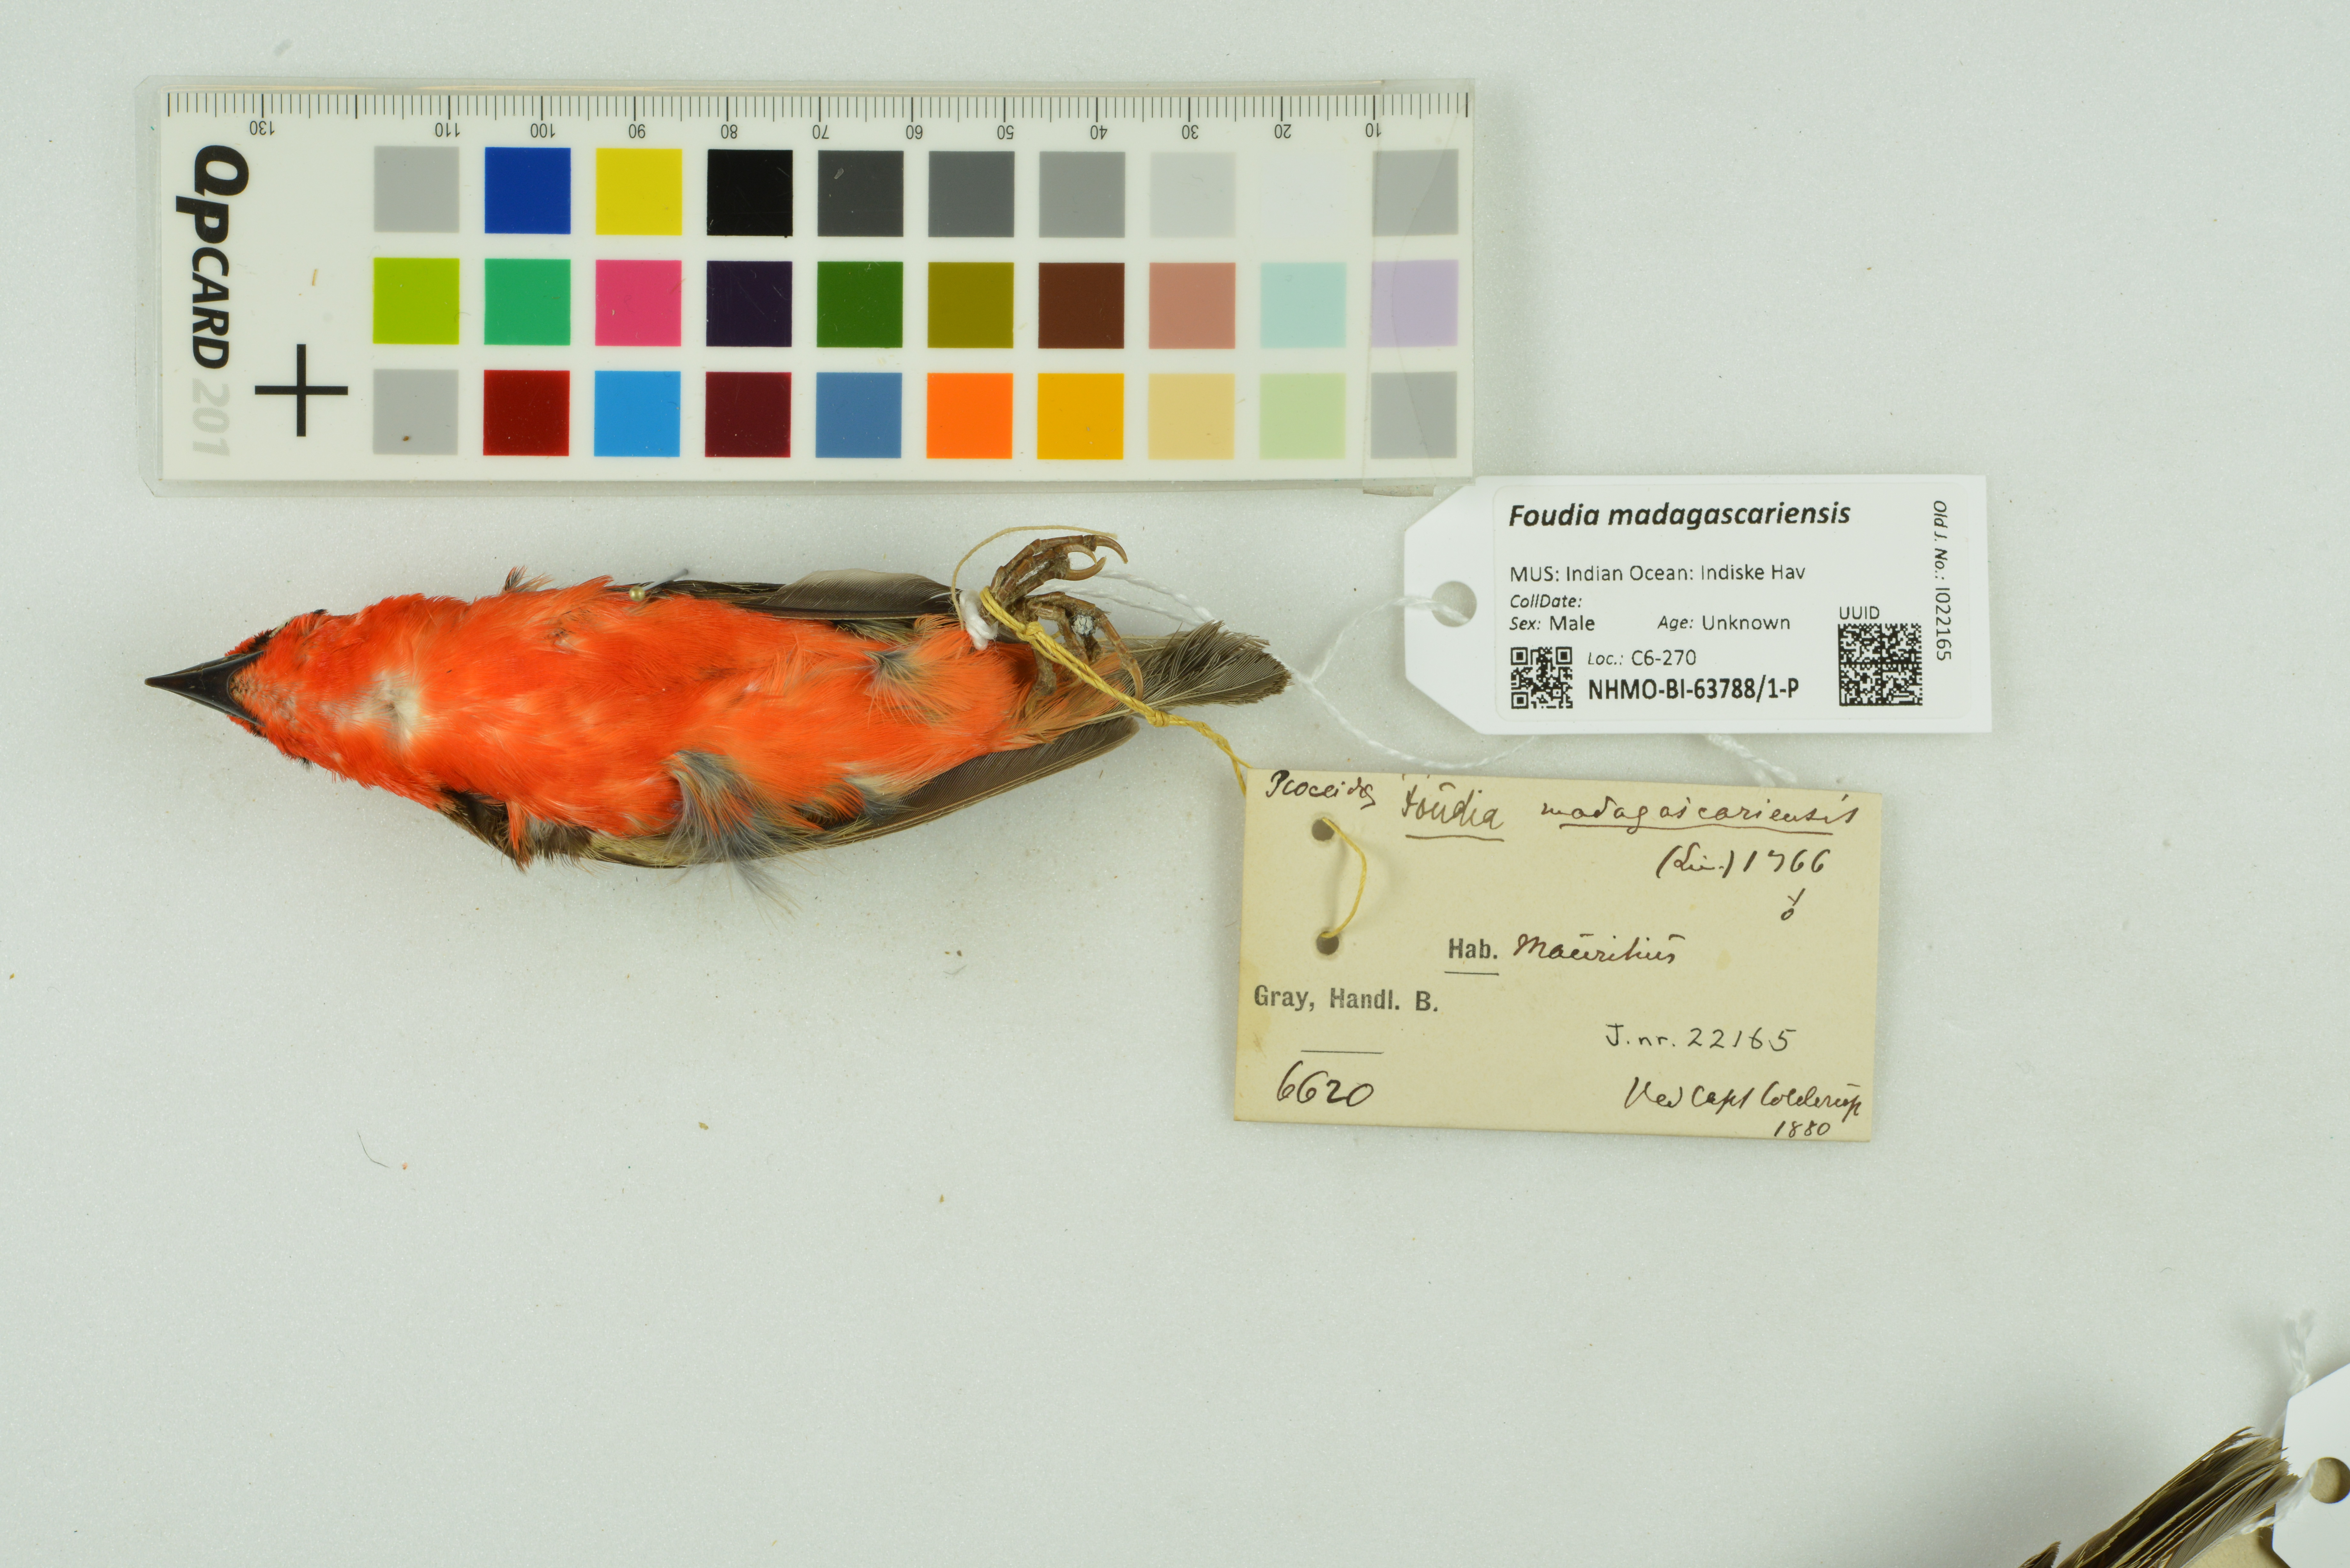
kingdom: Animalia
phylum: Chordata
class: Aves
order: Passeriformes
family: Ploceidae
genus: Foudia
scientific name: Foudia madagascariensis
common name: Red fody
